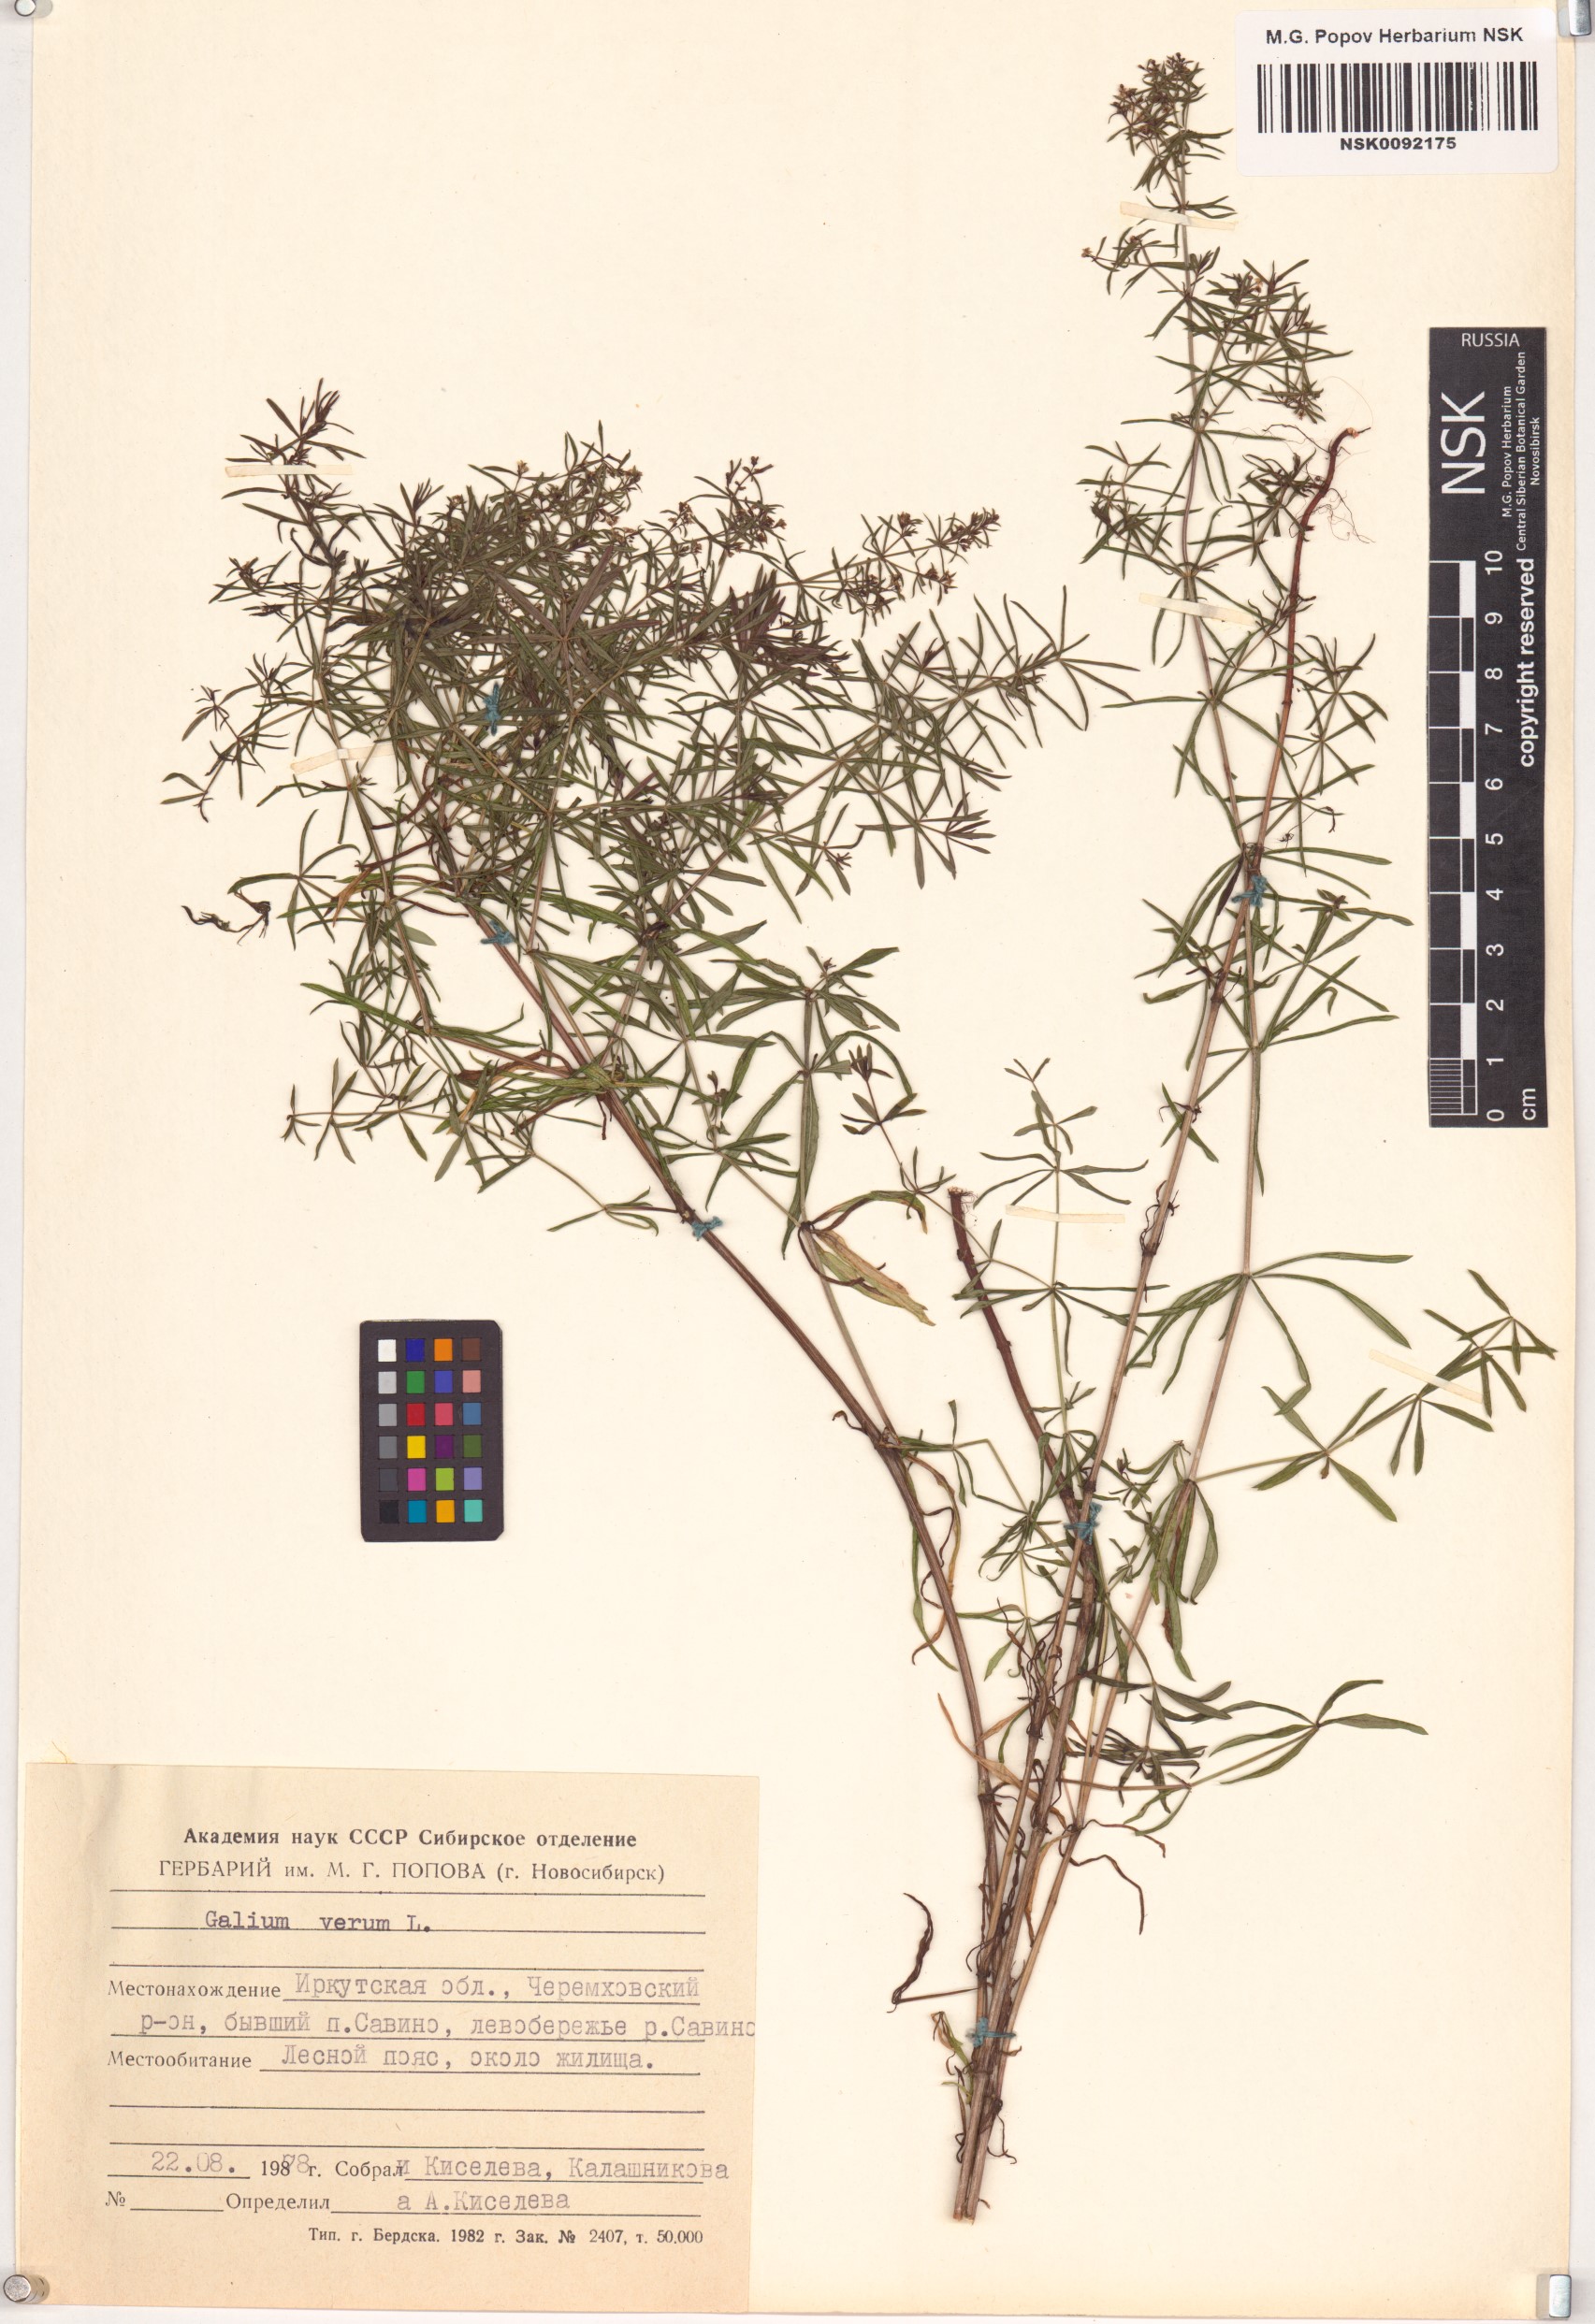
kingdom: Plantae
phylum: Tracheophyta
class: Magnoliopsida
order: Gentianales
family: Rubiaceae
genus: Galium
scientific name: Galium verum
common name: Lady's bedstraw
